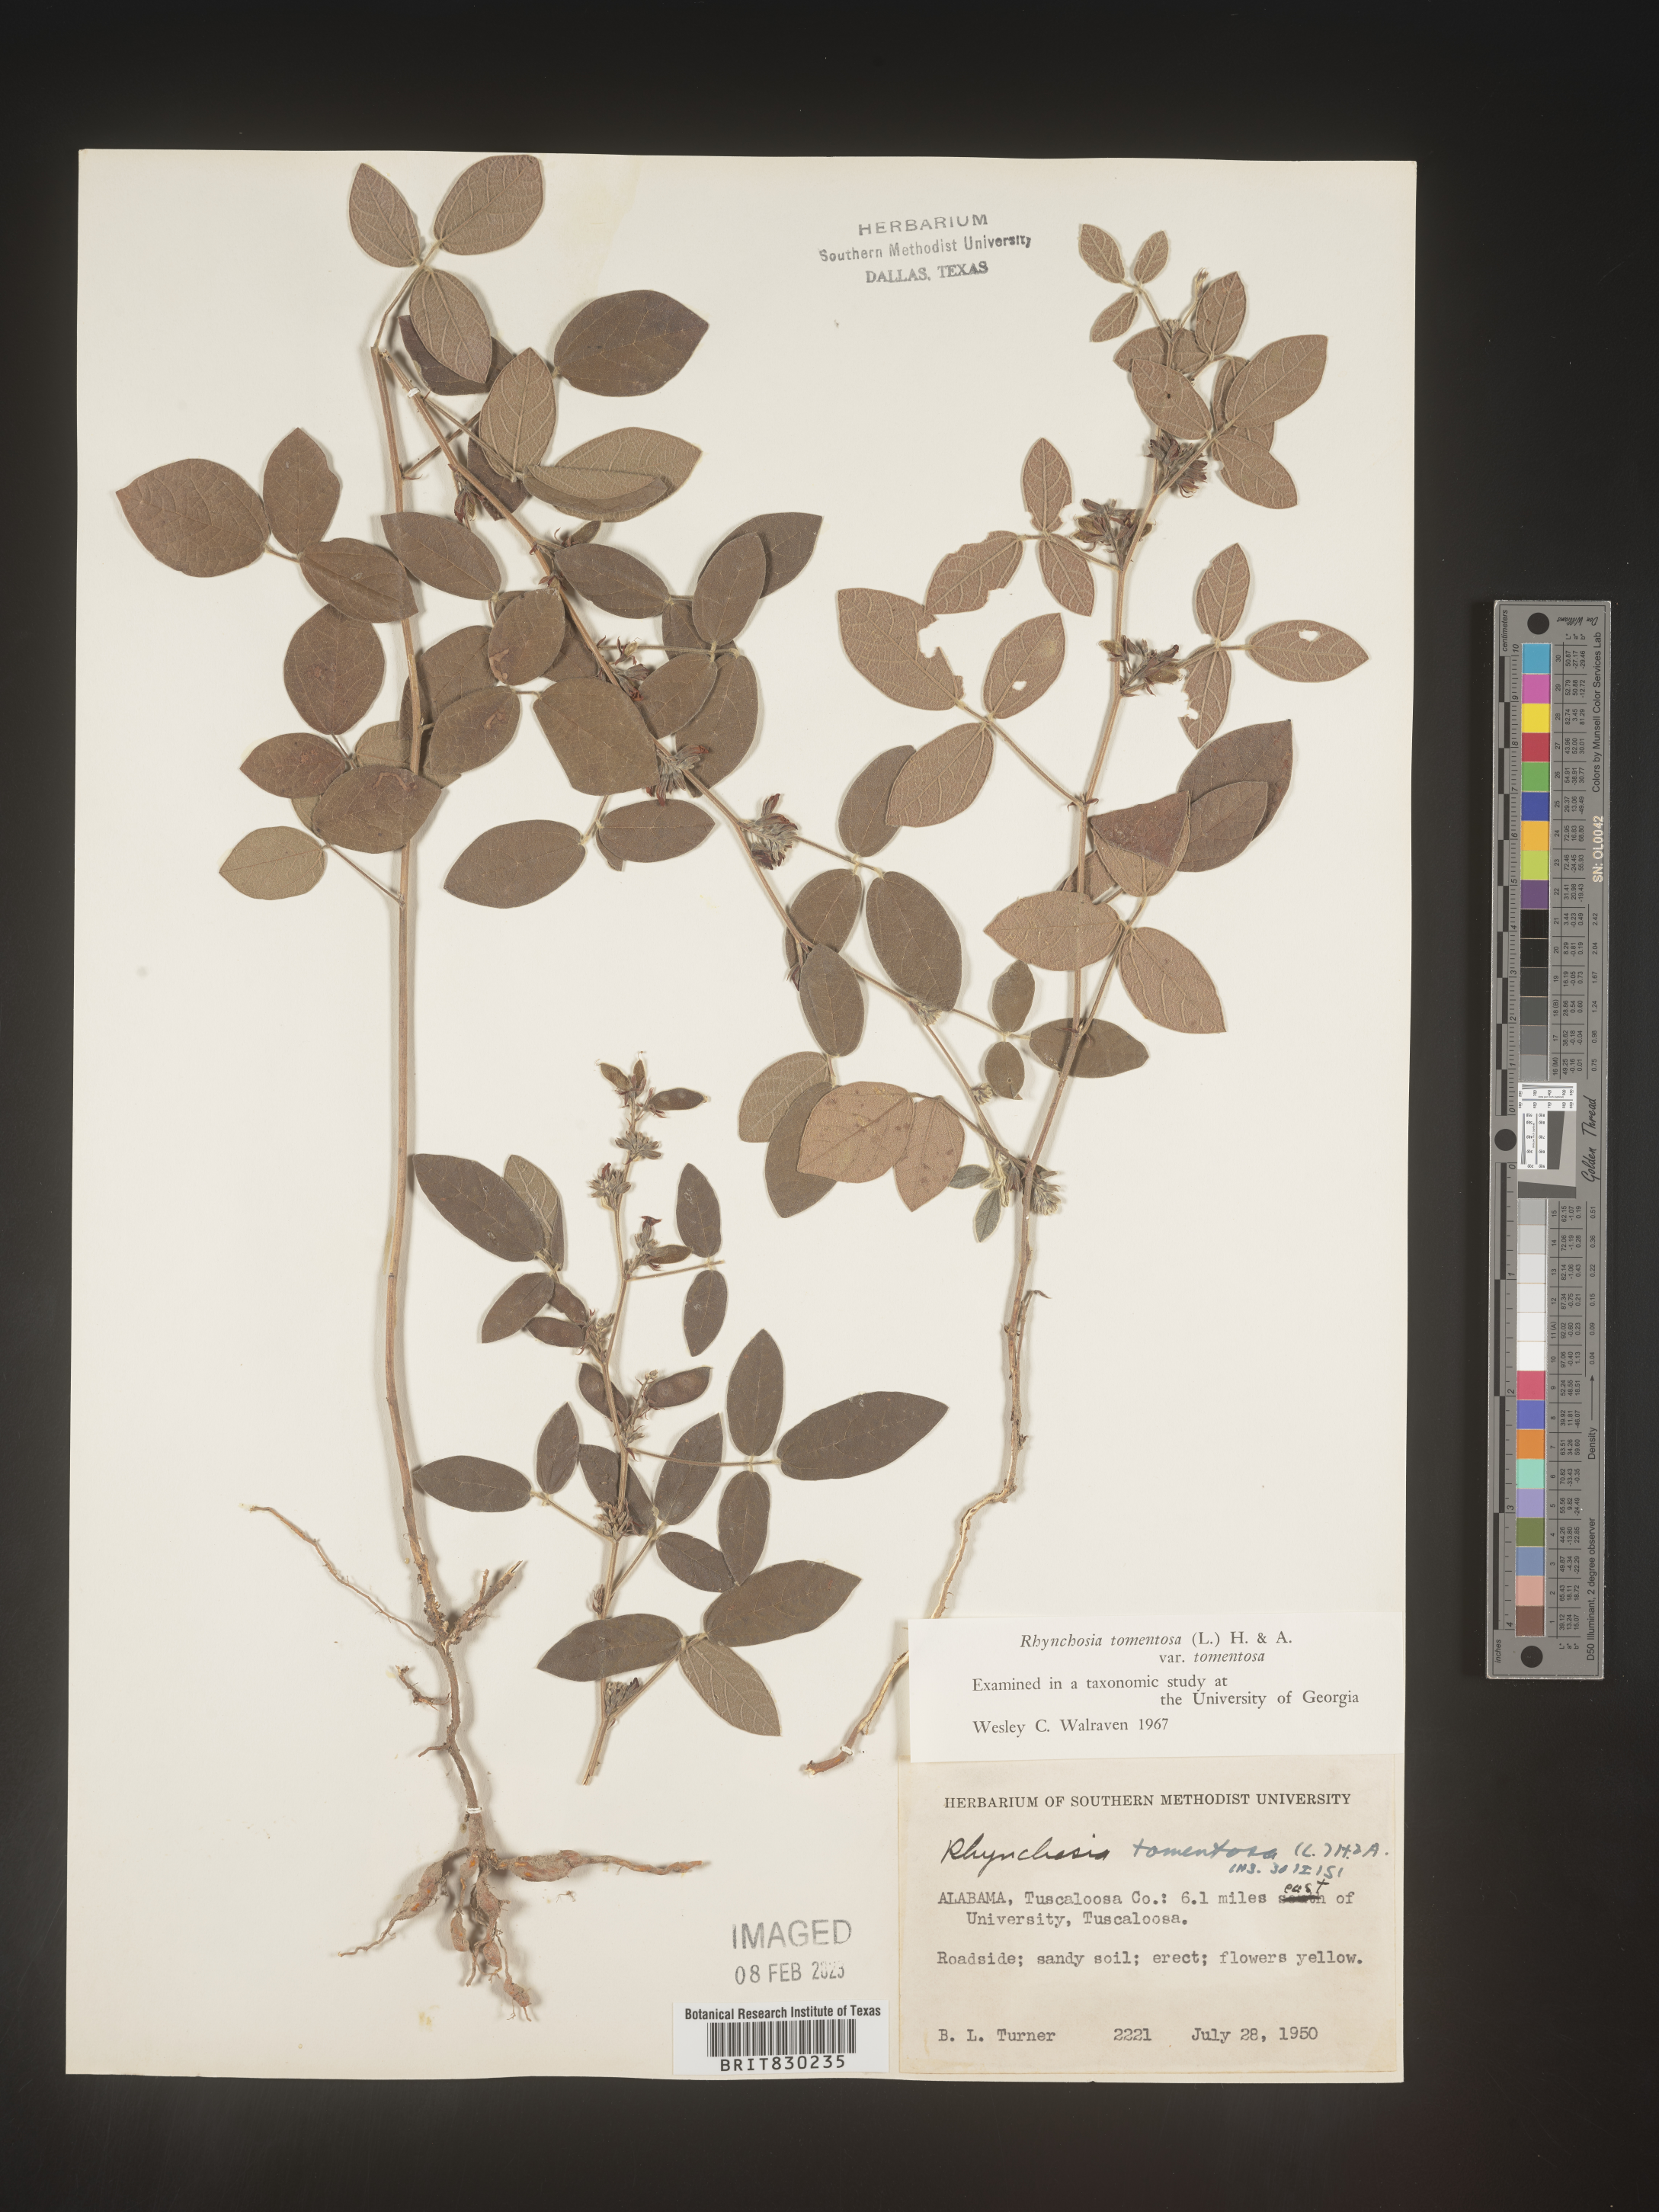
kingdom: Plantae
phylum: Tracheophyta
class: Magnoliopsida
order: Fabales
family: Fabaceae
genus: Rhynchosia
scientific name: Rhynchosia rothii
